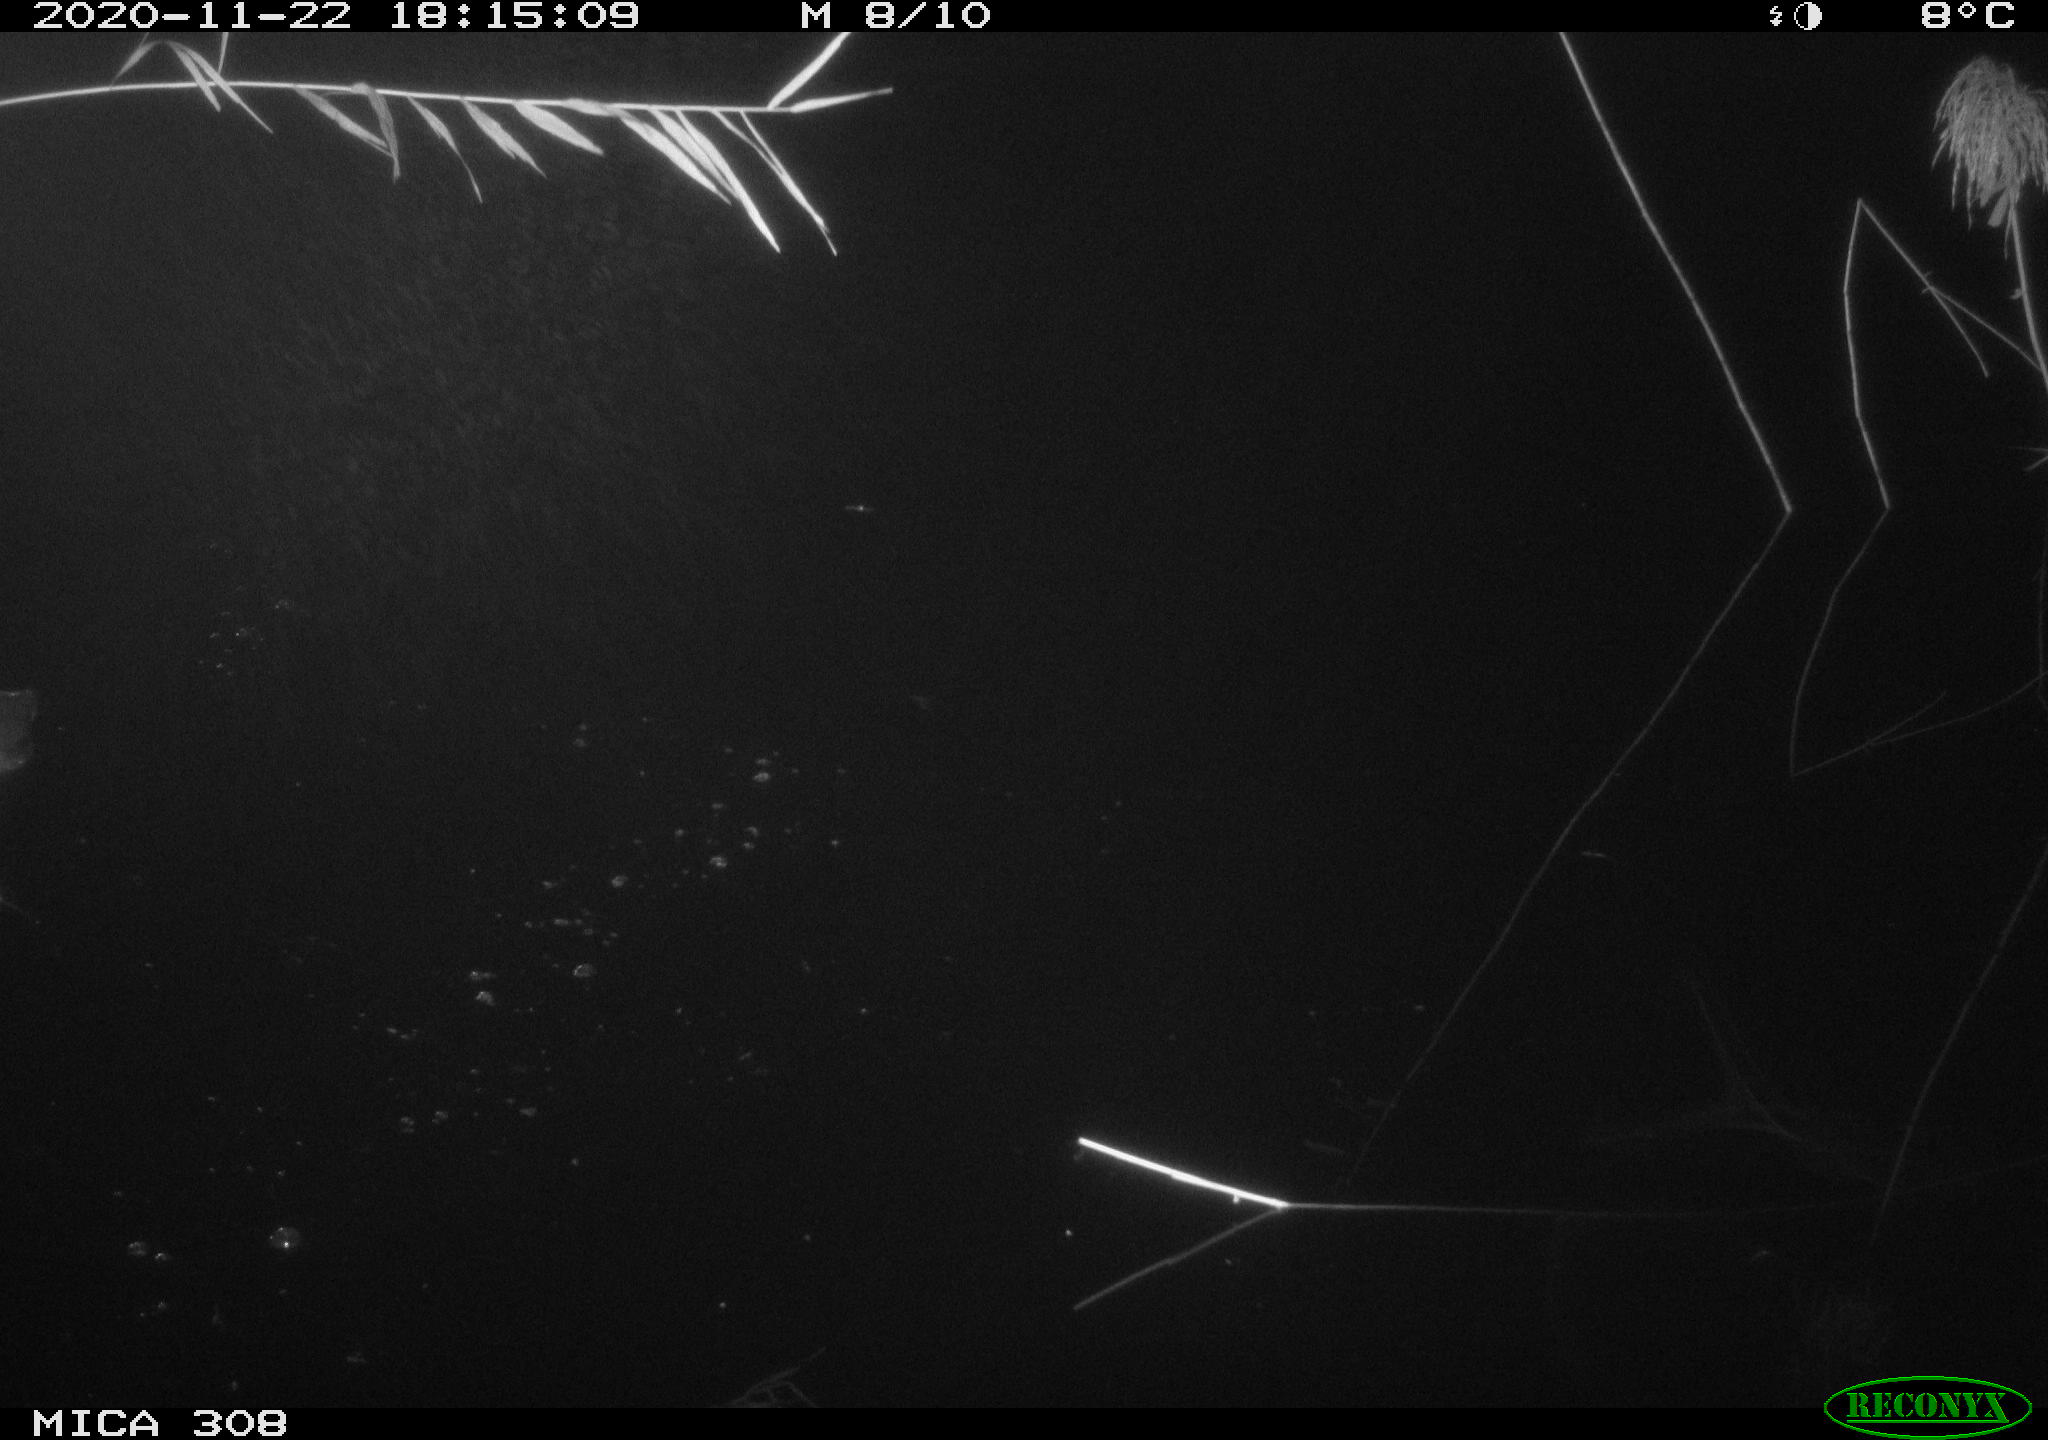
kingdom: Animalia
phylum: Chordata
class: Aves
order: Gruiformes
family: Rallidae
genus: Fulica
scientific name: Fulica atra
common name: Eurasian coot
